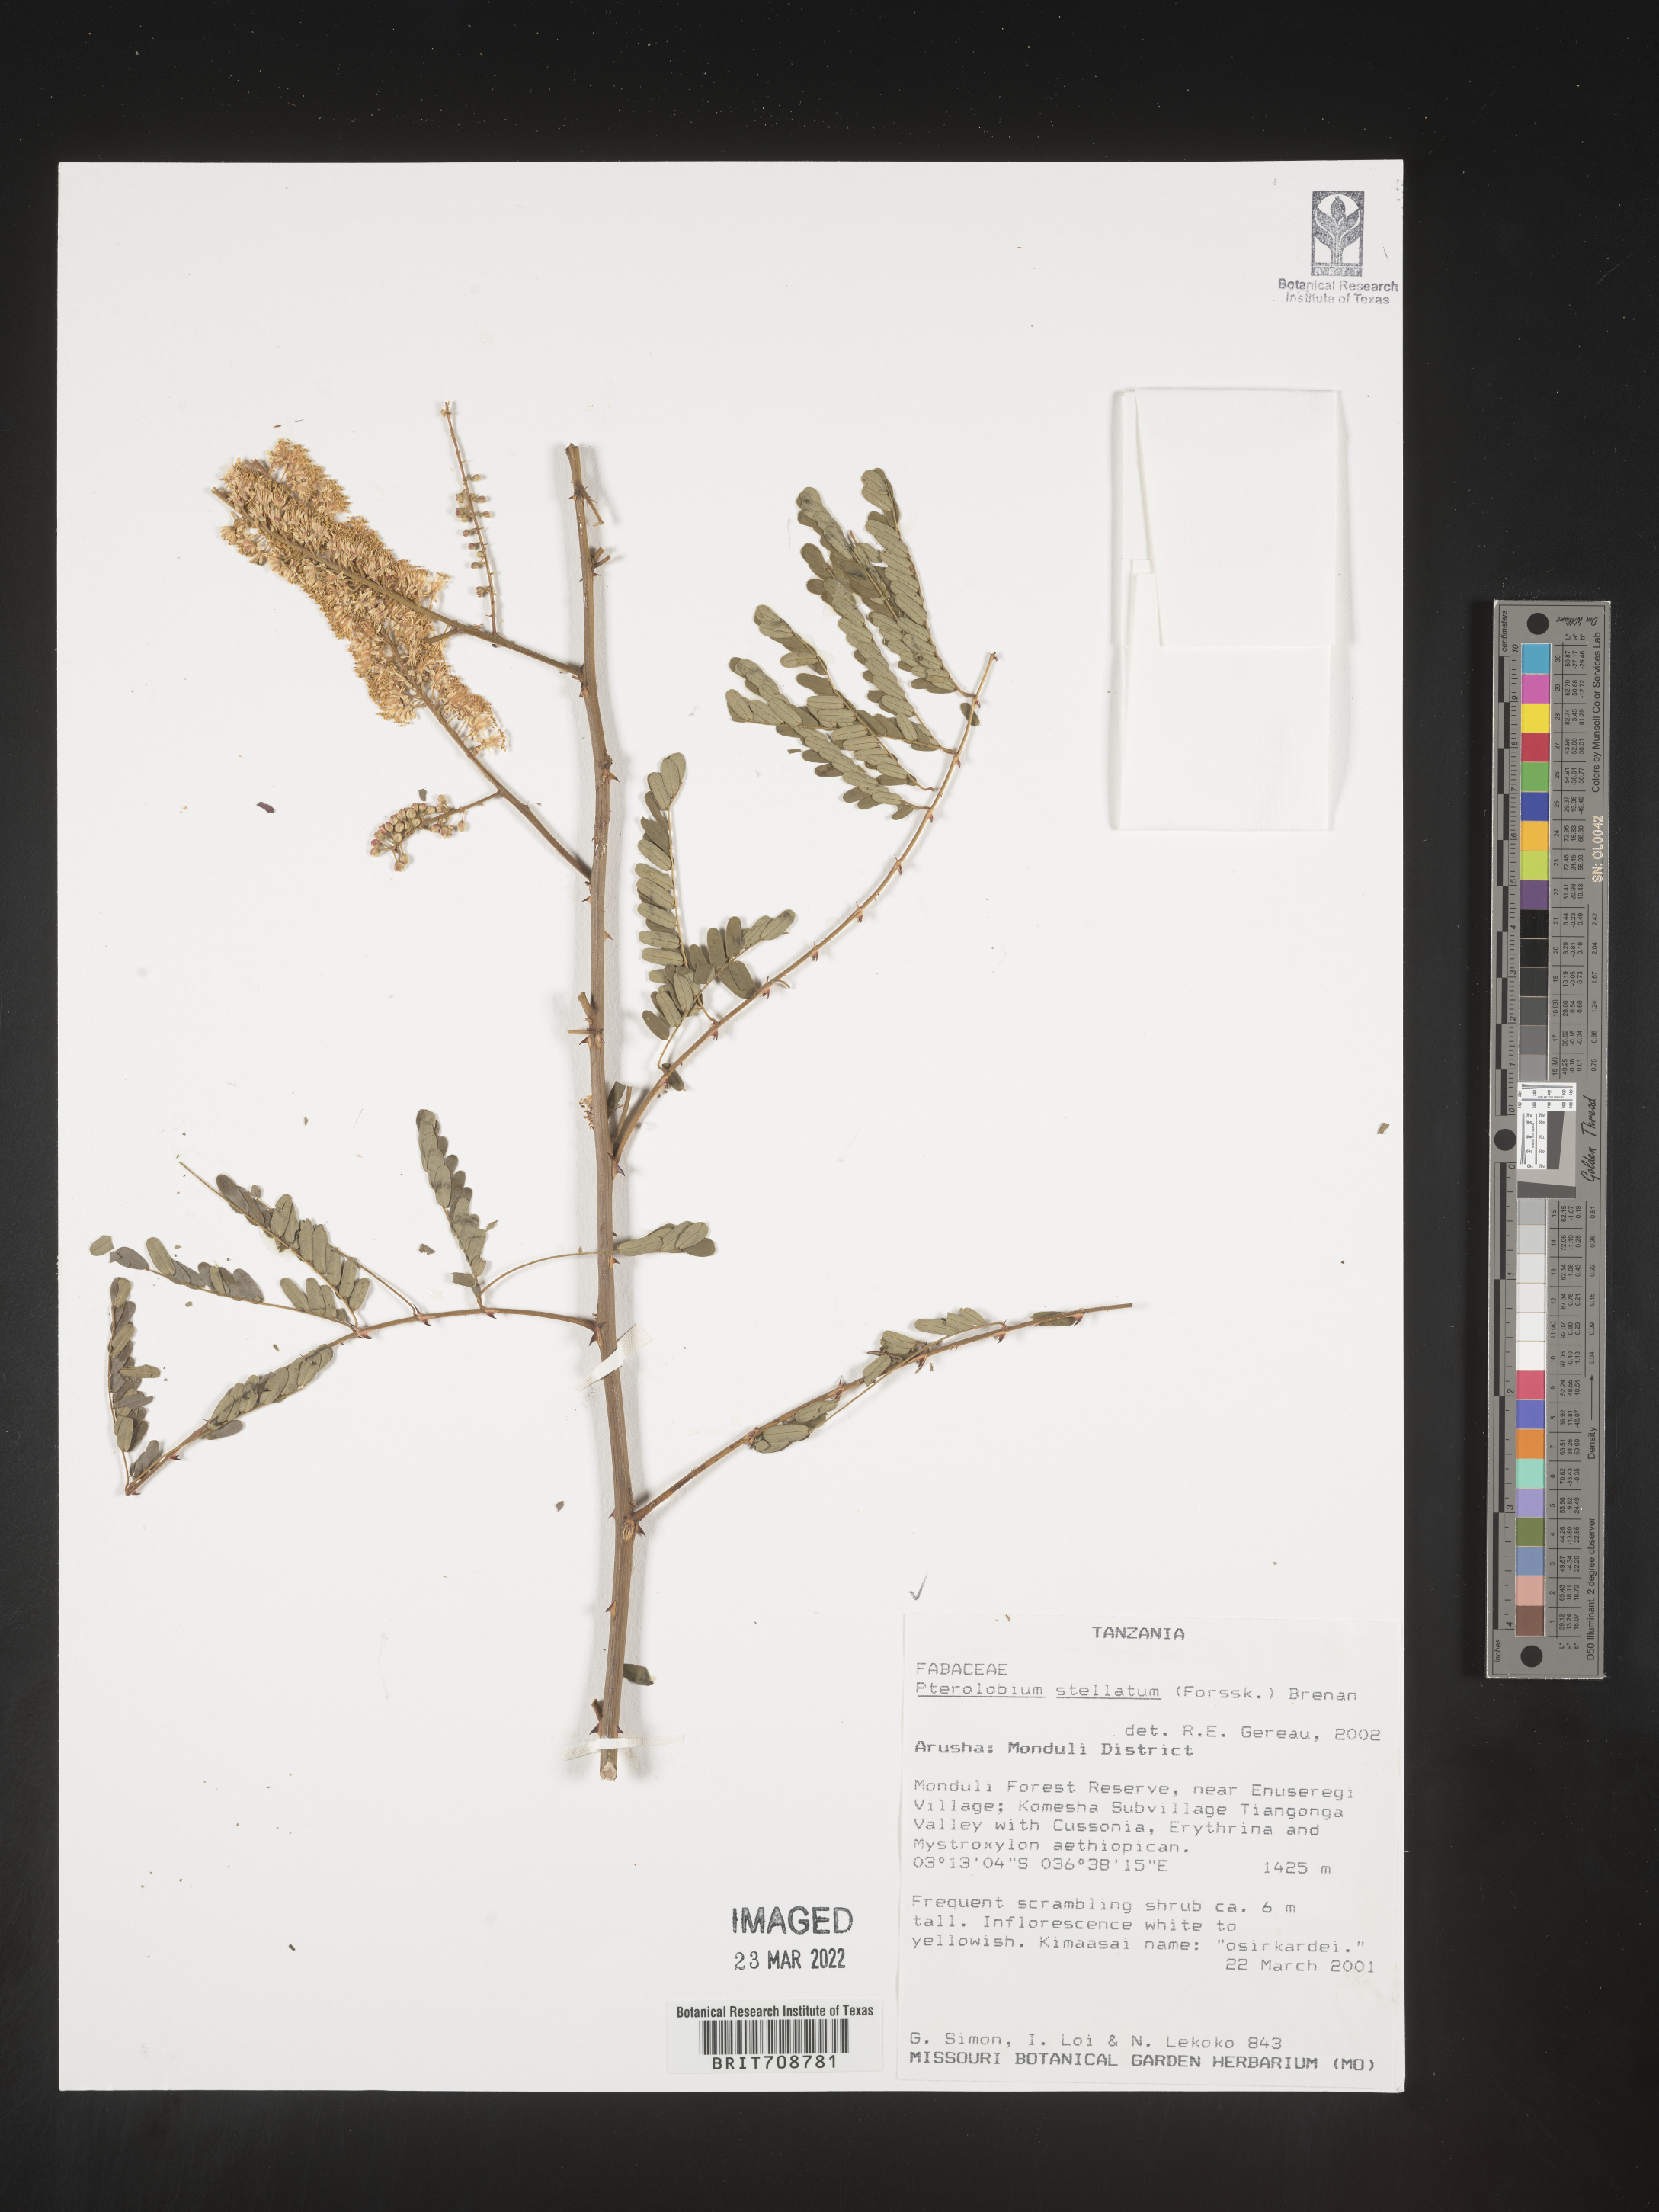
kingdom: Plantae
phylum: Tracheophyta
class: Magnoliopsida
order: Fabales
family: Fabaceae
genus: Pterolobium
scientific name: Pterolobium
